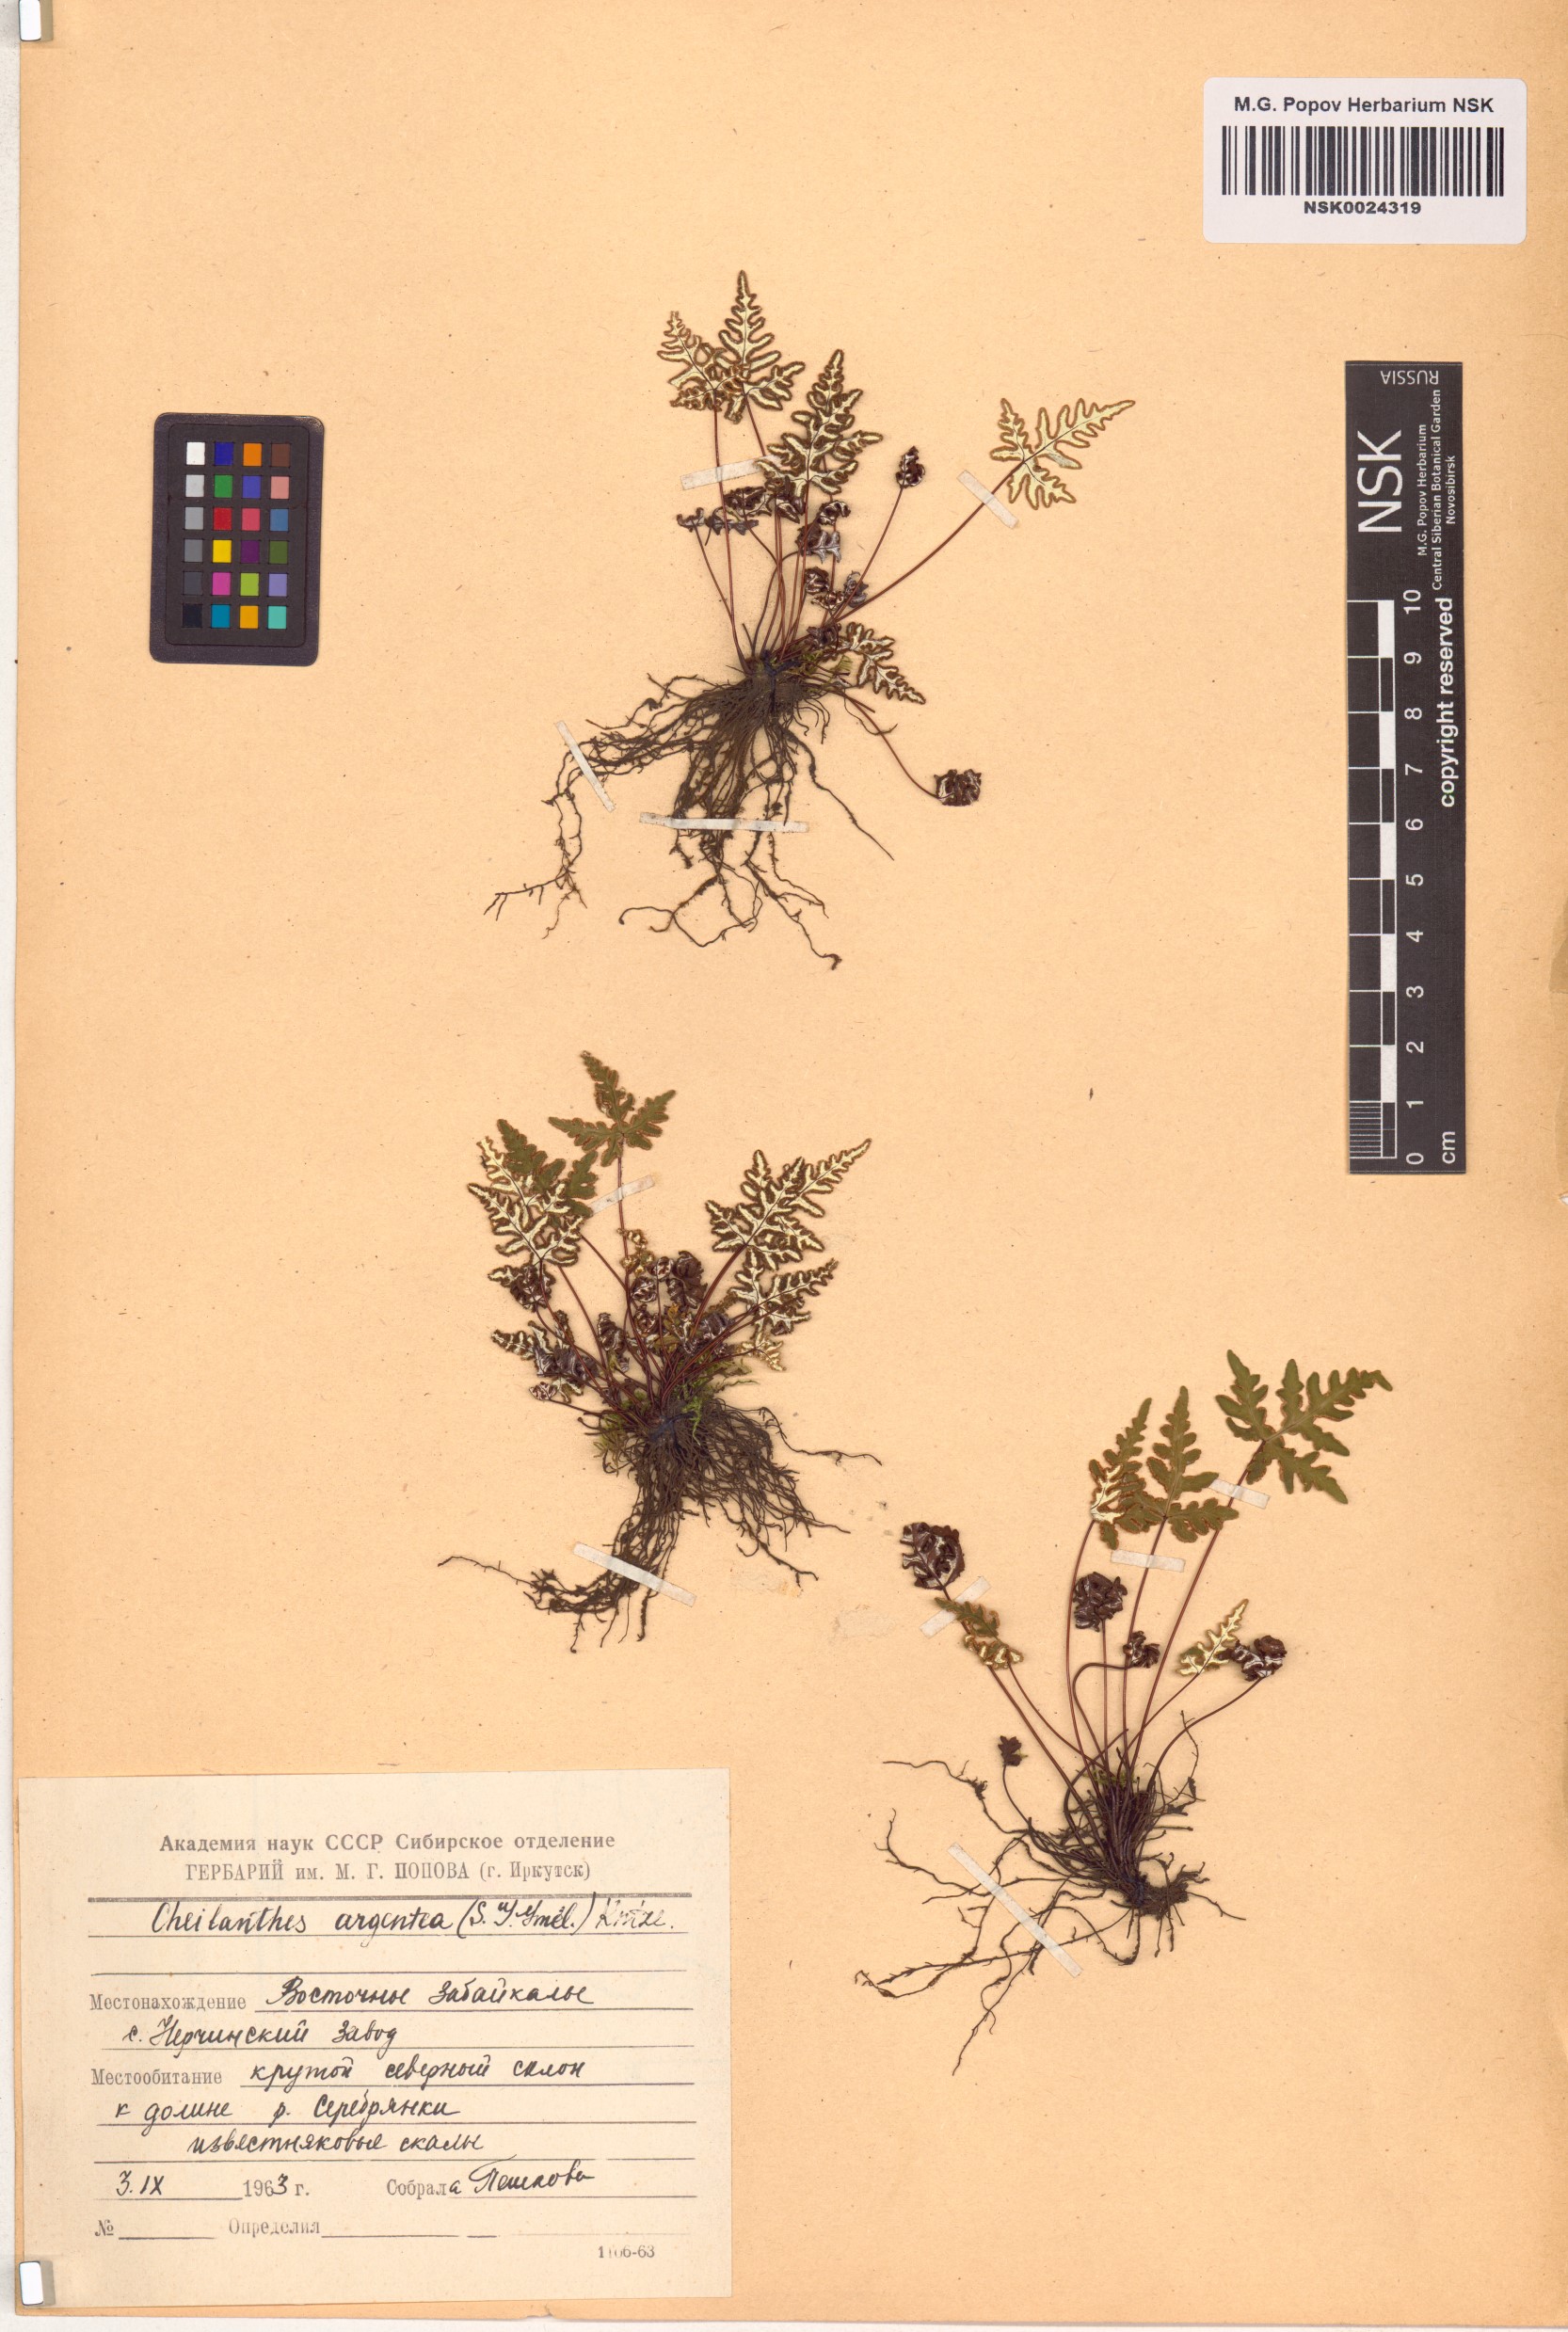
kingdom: Plantae
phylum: Tracheophyta
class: Polypodiopsida
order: Polypodiales
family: Pteridaceae
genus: Aleuritopteris
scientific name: Aleuritopteris argentea
